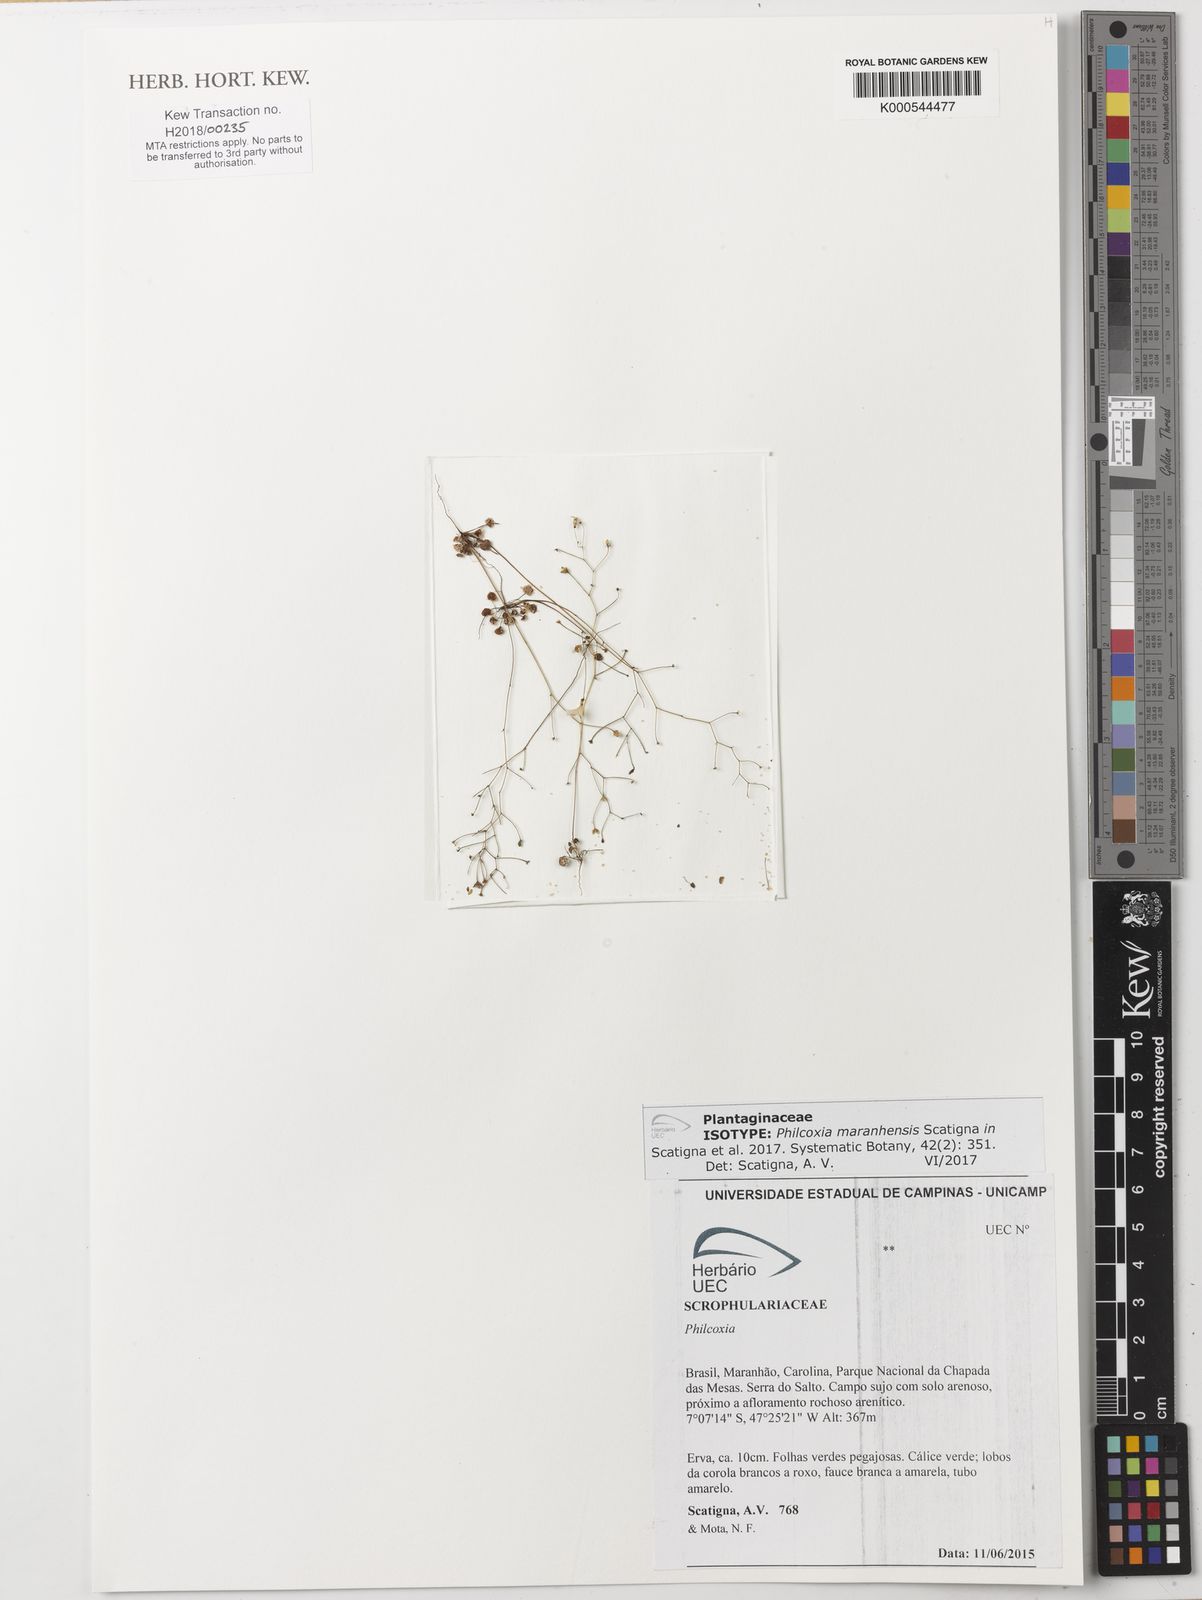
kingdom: Plantae
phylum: Tracheophyta
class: Magnoliopsida
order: Lamiales
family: Plantaginaceae
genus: Philcoxia
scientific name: Philcoxia maranhensis
